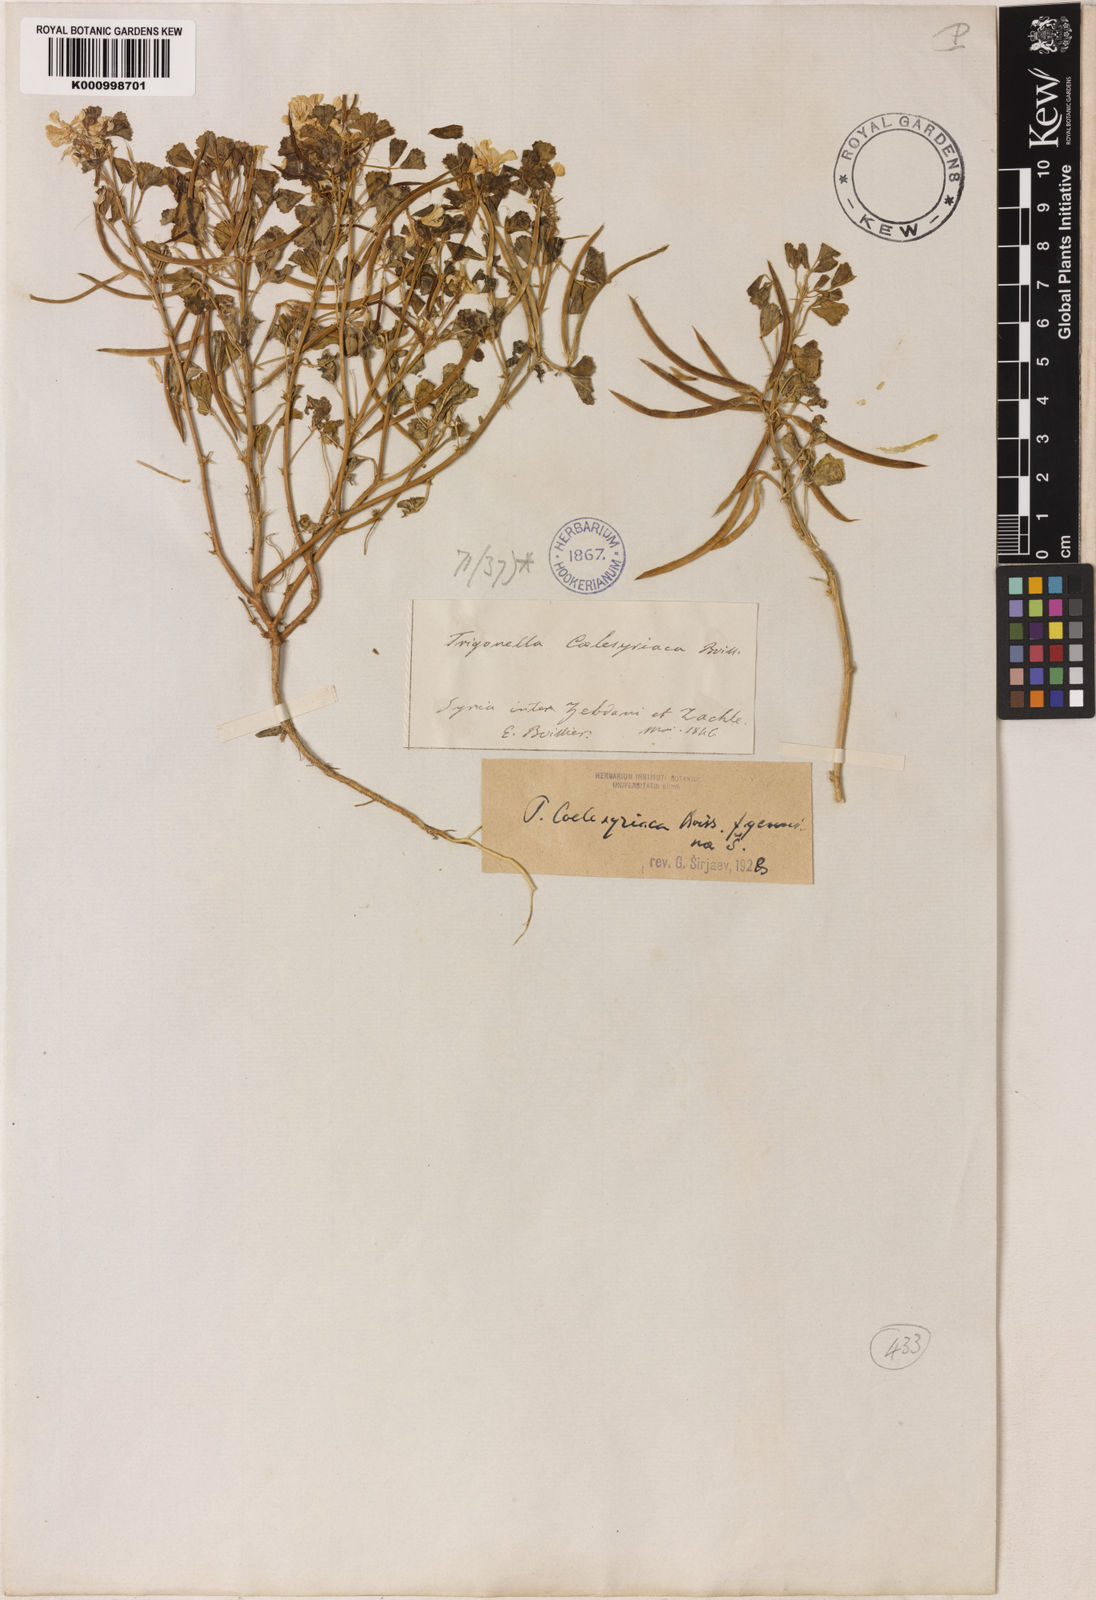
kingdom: Plantae
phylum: Tracheophyta
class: Magnoliopsida
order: Fabales
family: Fabaceae
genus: Trigonella
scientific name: Trigonella caelesyriaca
